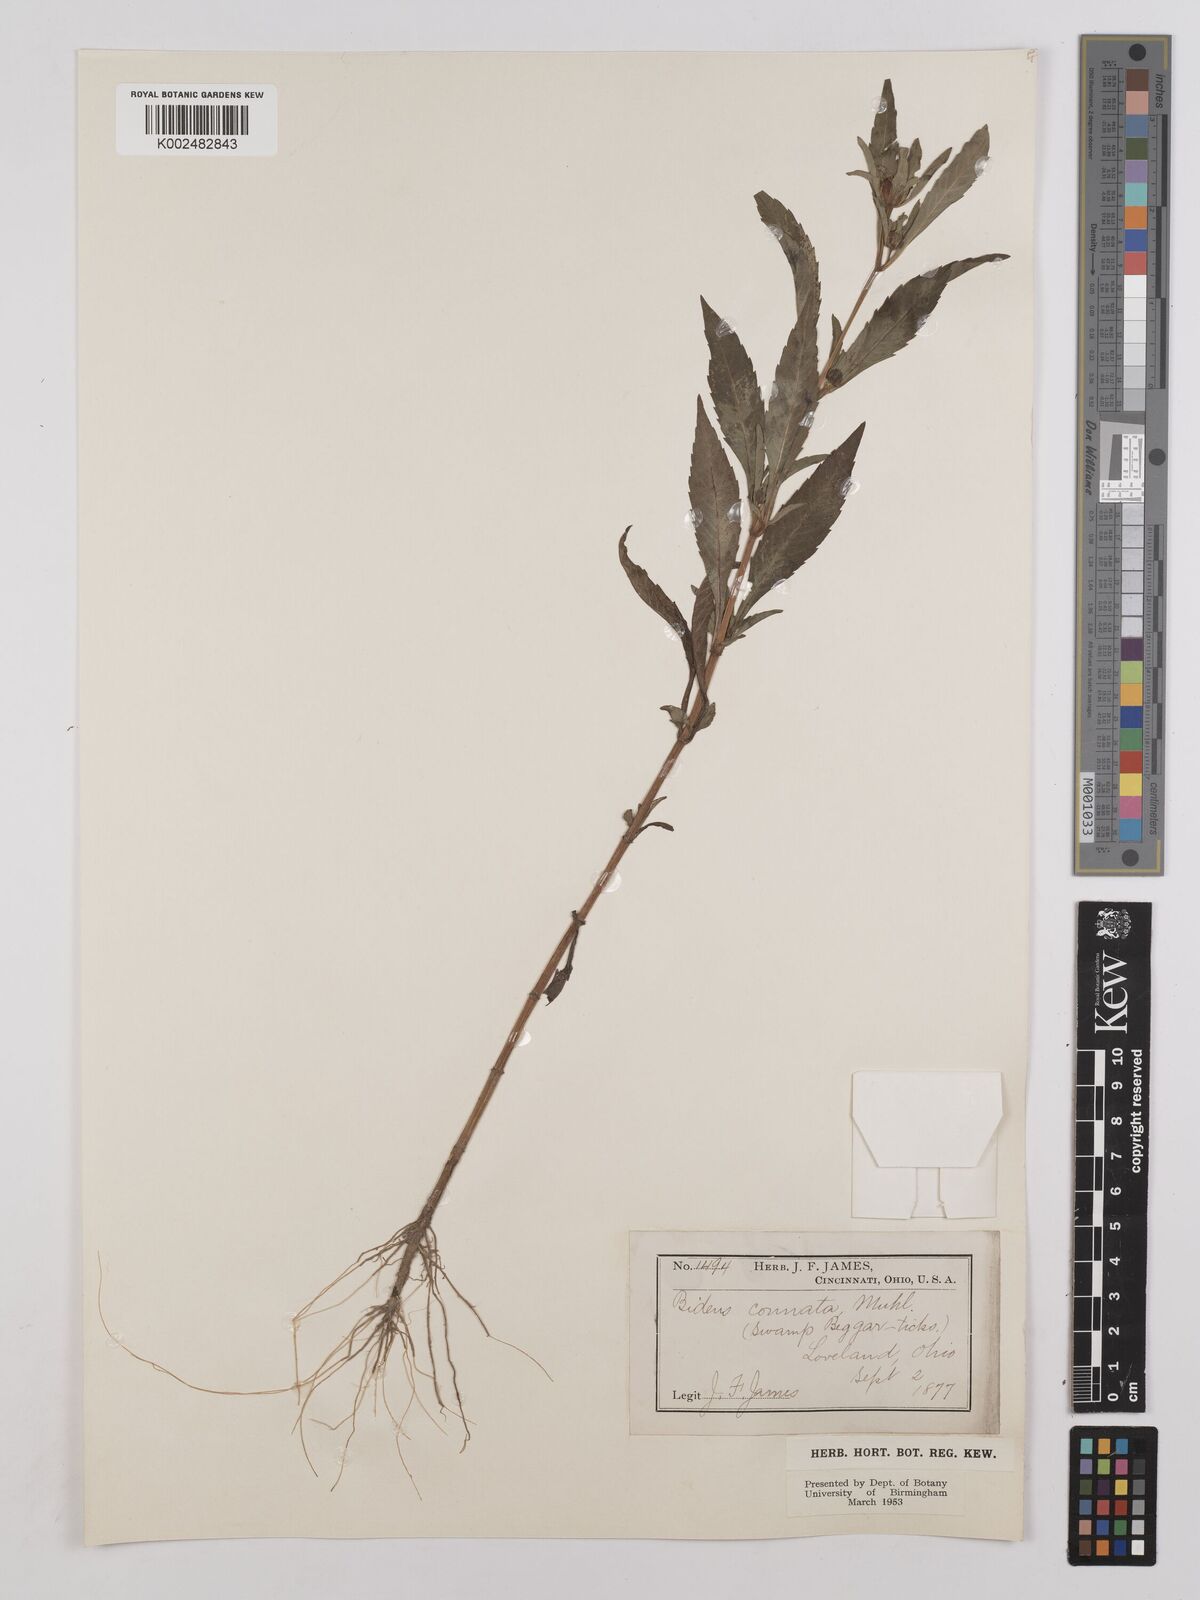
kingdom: Plantae
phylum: Tracheophyta
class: Magnoliopsida
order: Asterales
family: Asteraceae
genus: Bidens
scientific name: Bidens connata
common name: London bur-marigold
